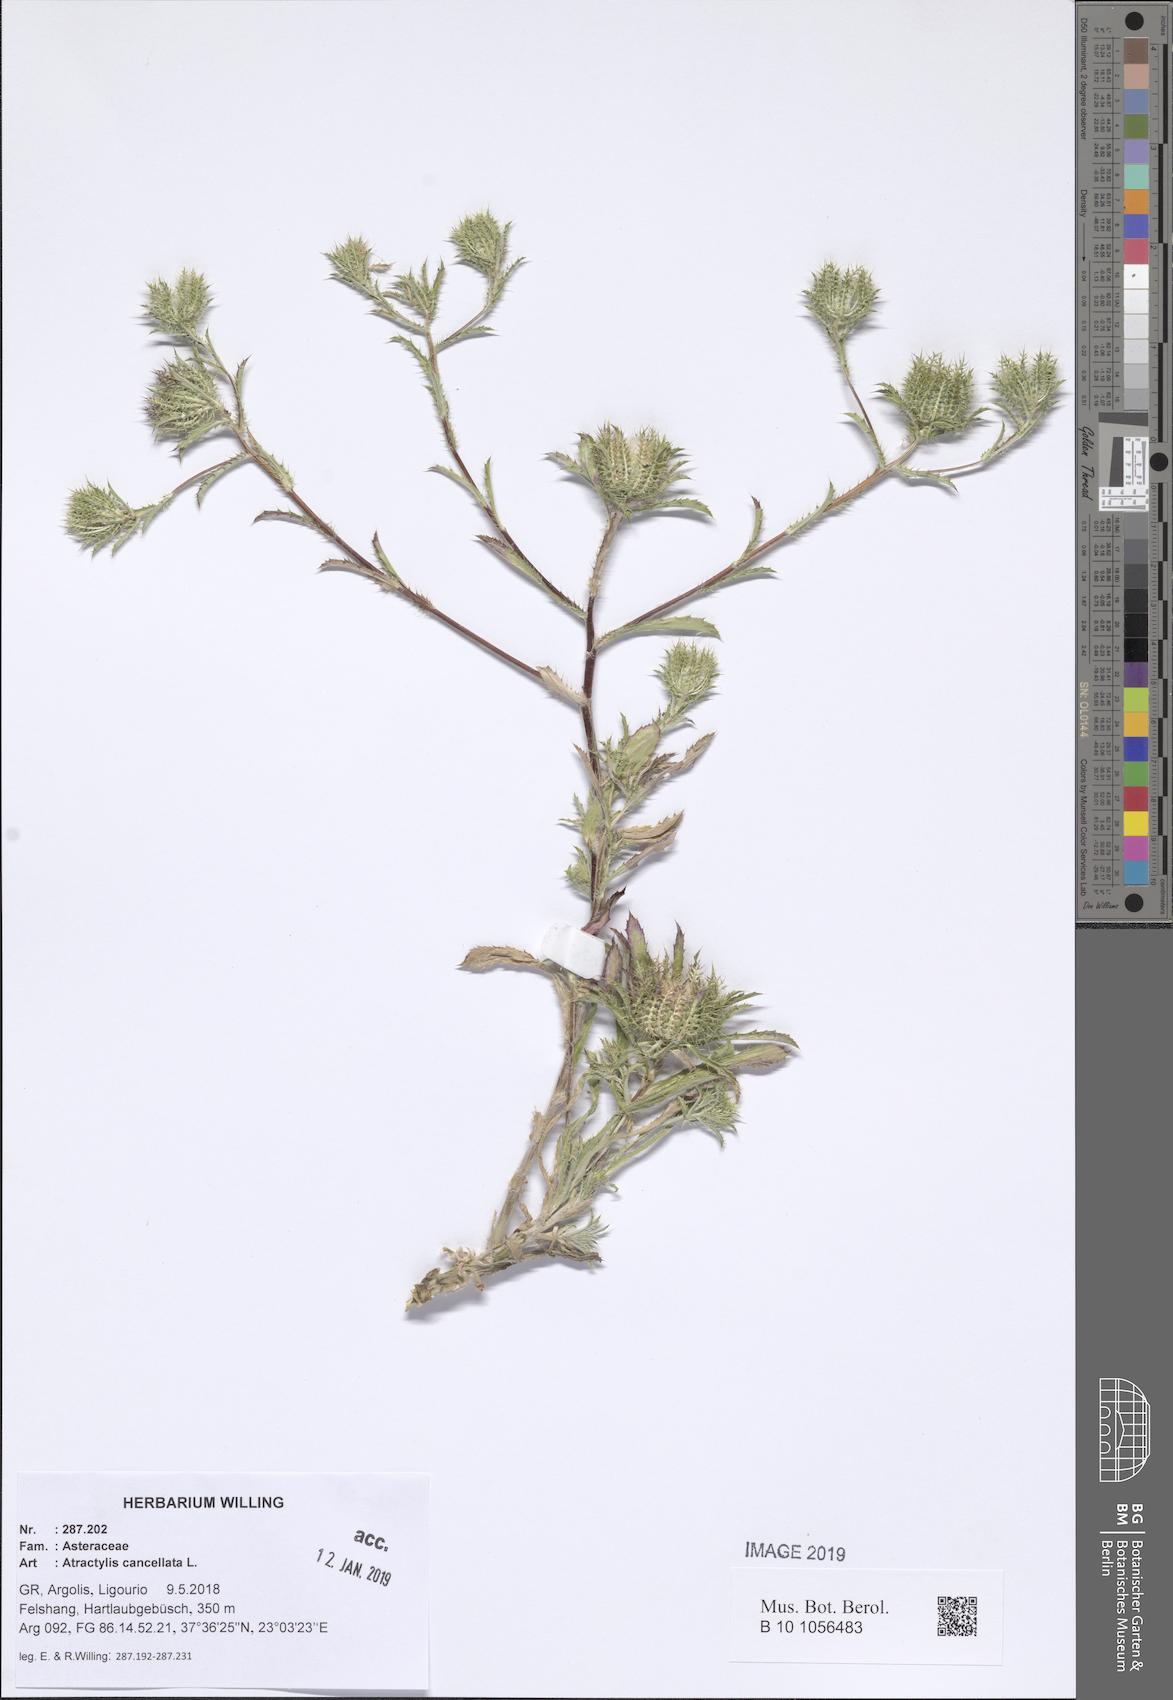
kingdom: Plantae
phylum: Tracheophyta
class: Magnoliopsida
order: Asterales
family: Asteraceae
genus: Atractylis
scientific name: Atractylis cancellata
